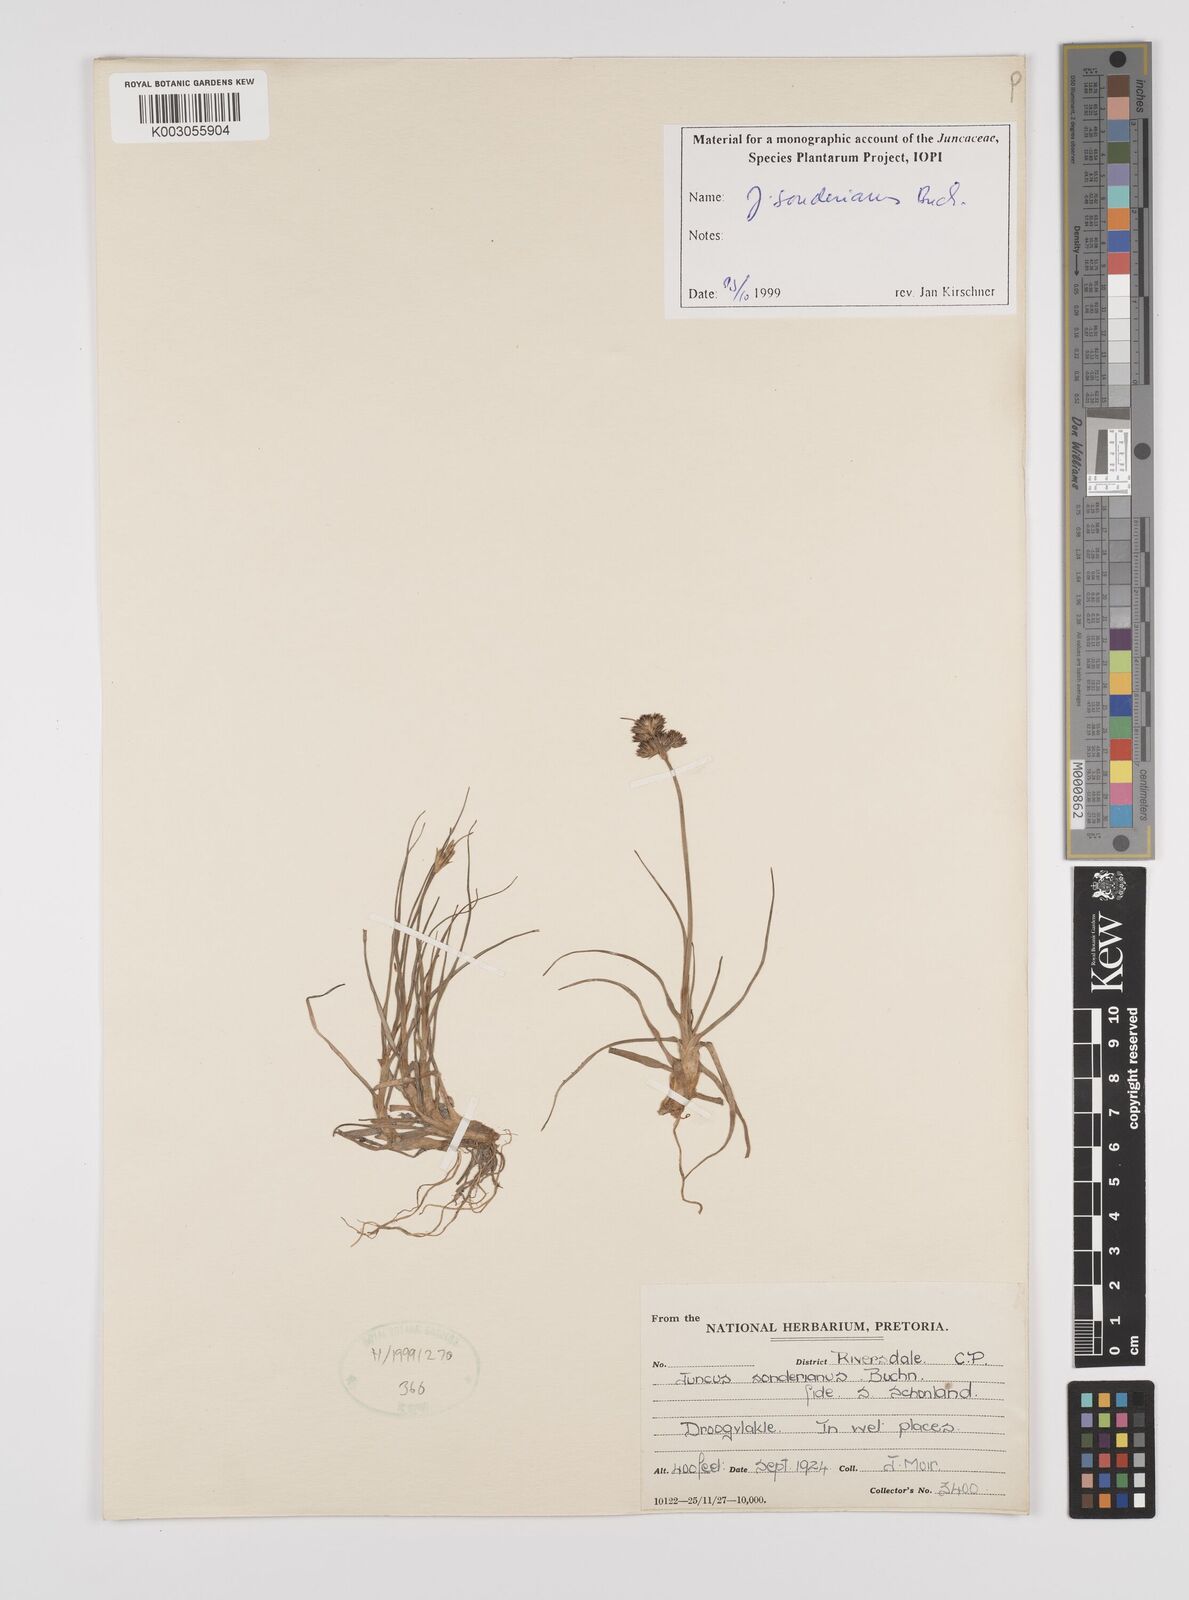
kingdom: Plantae
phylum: Tracheophyta
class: Liliopsida
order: Poales
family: Juncaceae
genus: Juncus
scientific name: Juncus sonderianus
